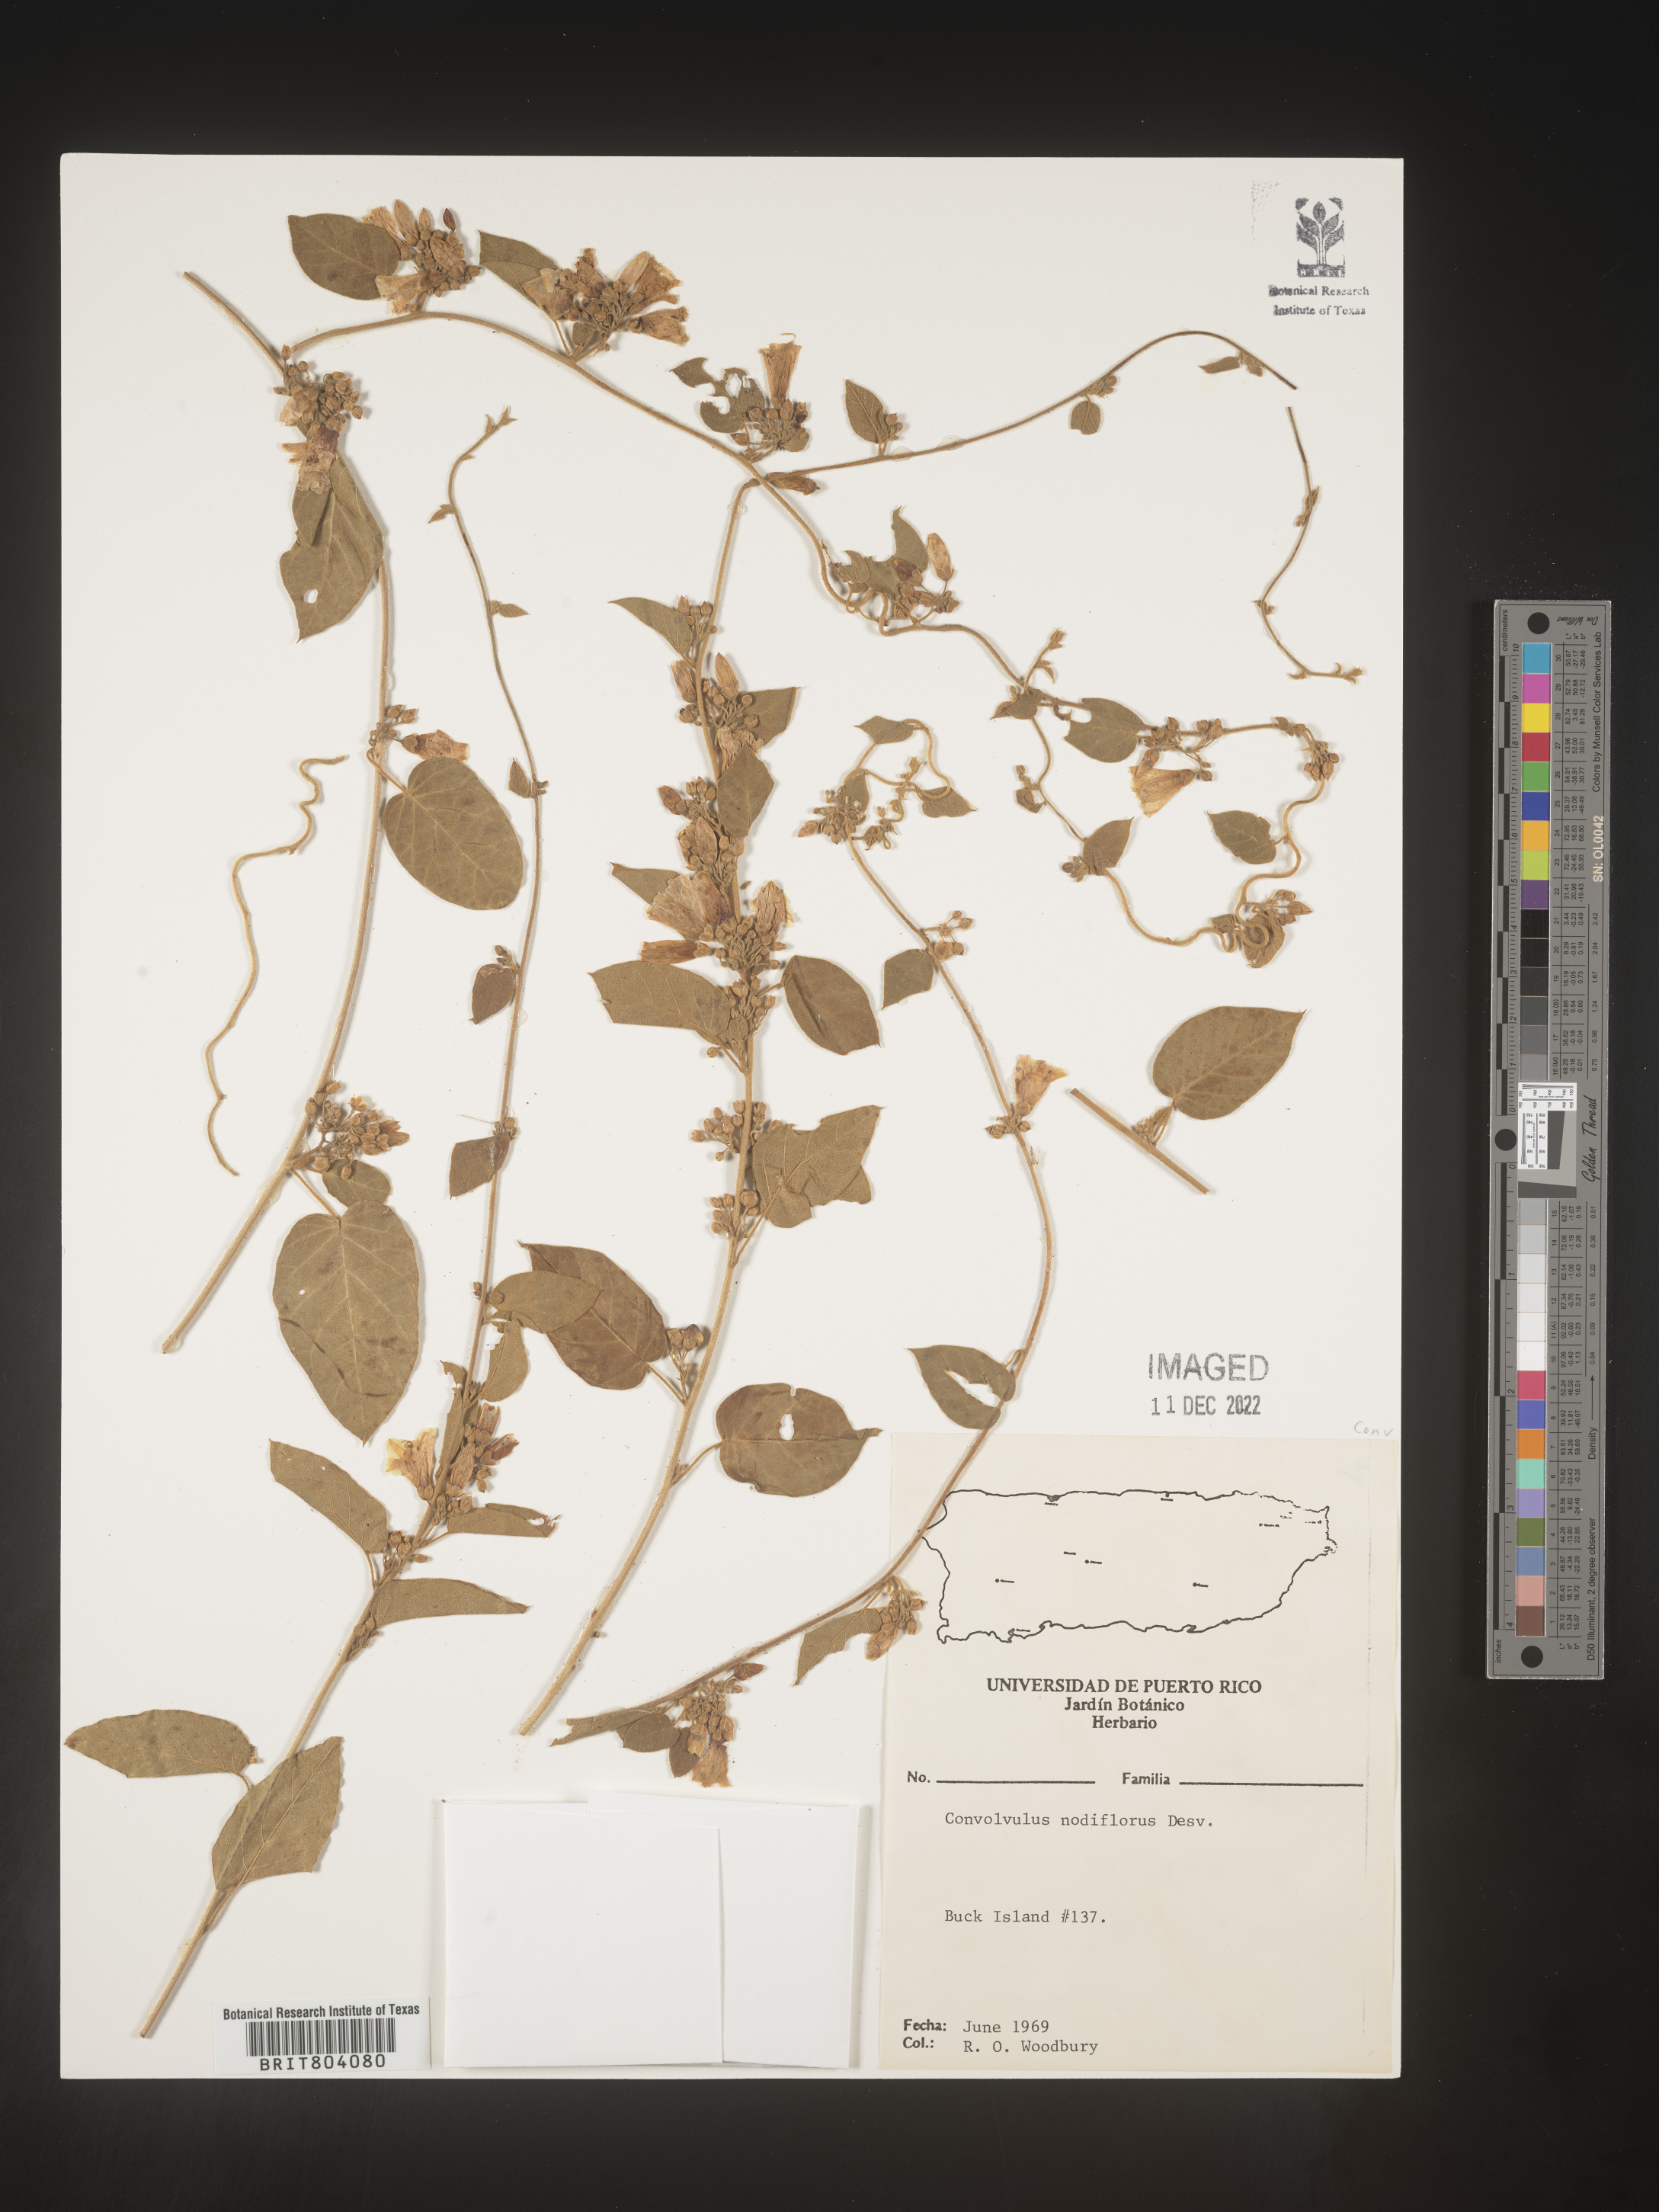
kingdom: Plantae
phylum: Tracheophyta
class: Magnoliopsida
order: Solanales
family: Convolvulaceae
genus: Convolvulus
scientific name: Convolvulus
